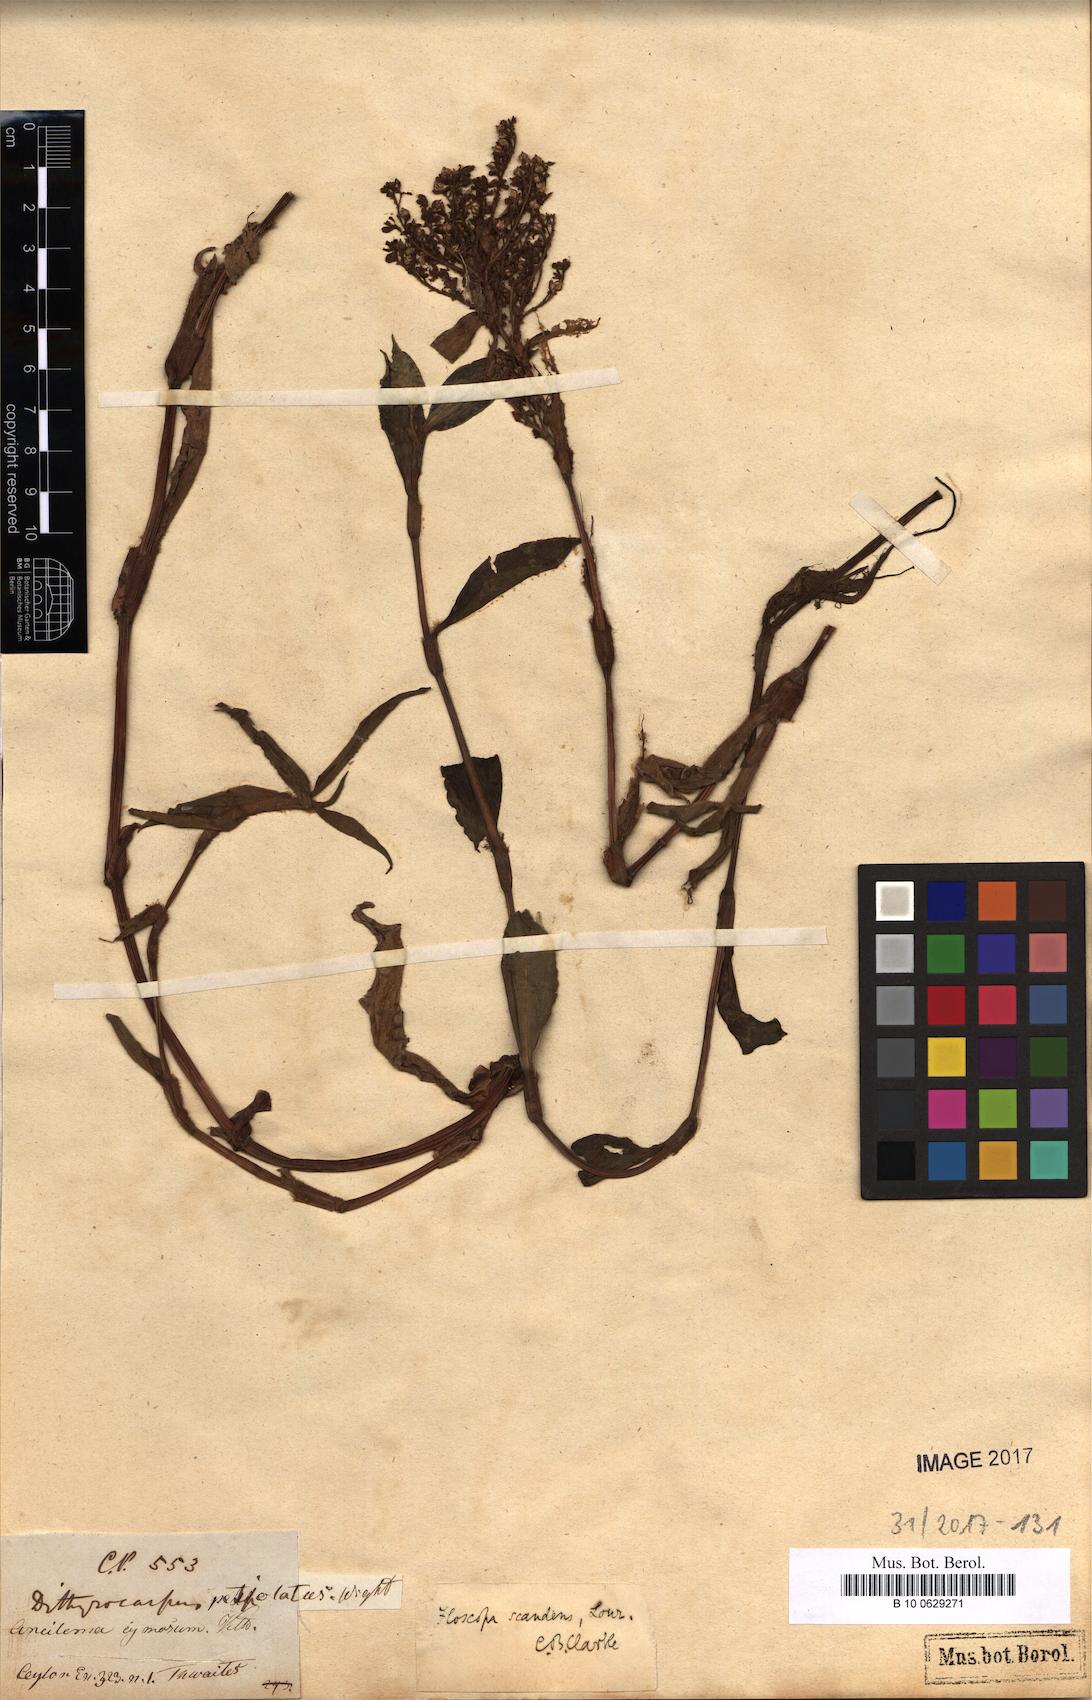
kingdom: Plantae
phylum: Tracheophyta
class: Liliopsida
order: Commelinales
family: Commelinaceae
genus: Floscopa
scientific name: Floscopa scandens
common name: Climbing flower cup
